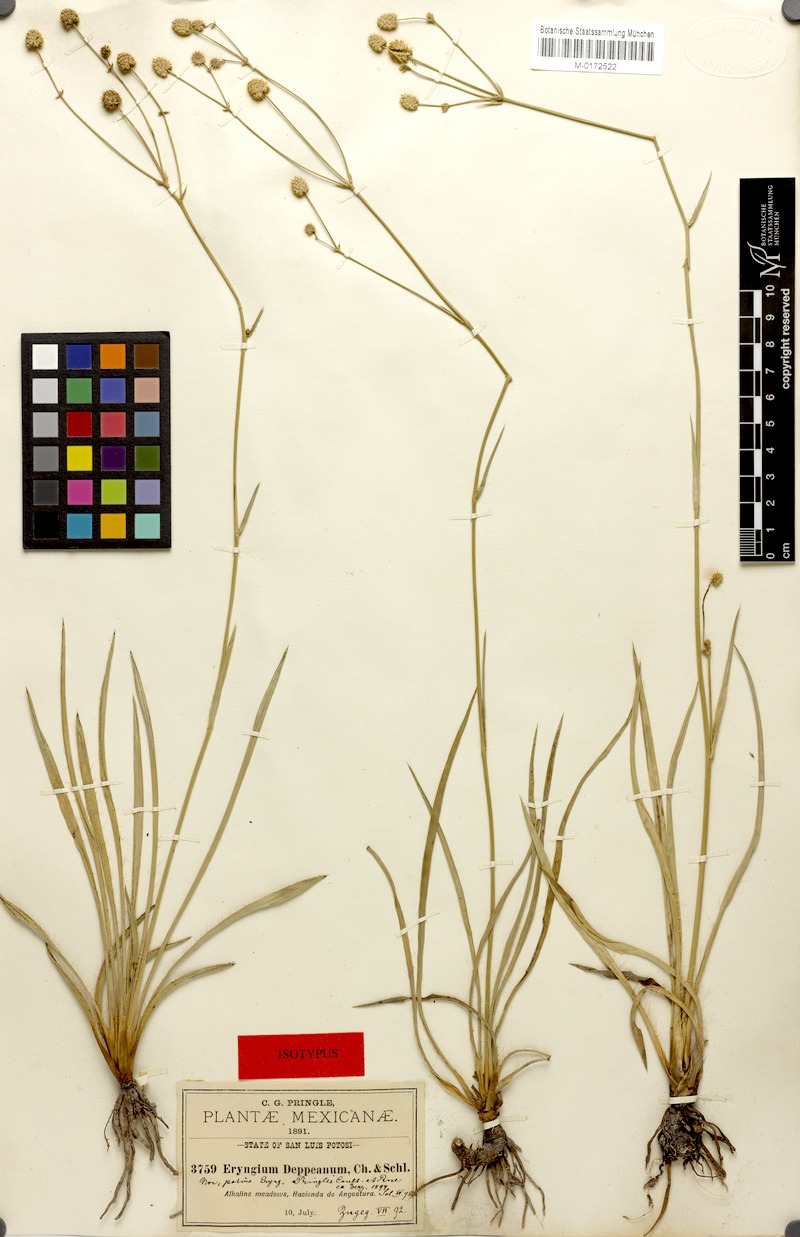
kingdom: Plantae
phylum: Tracheophyta
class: Magnoliopsida
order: Apiales
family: Apiaceae
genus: Eryngium
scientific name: Eryngium gramineum
